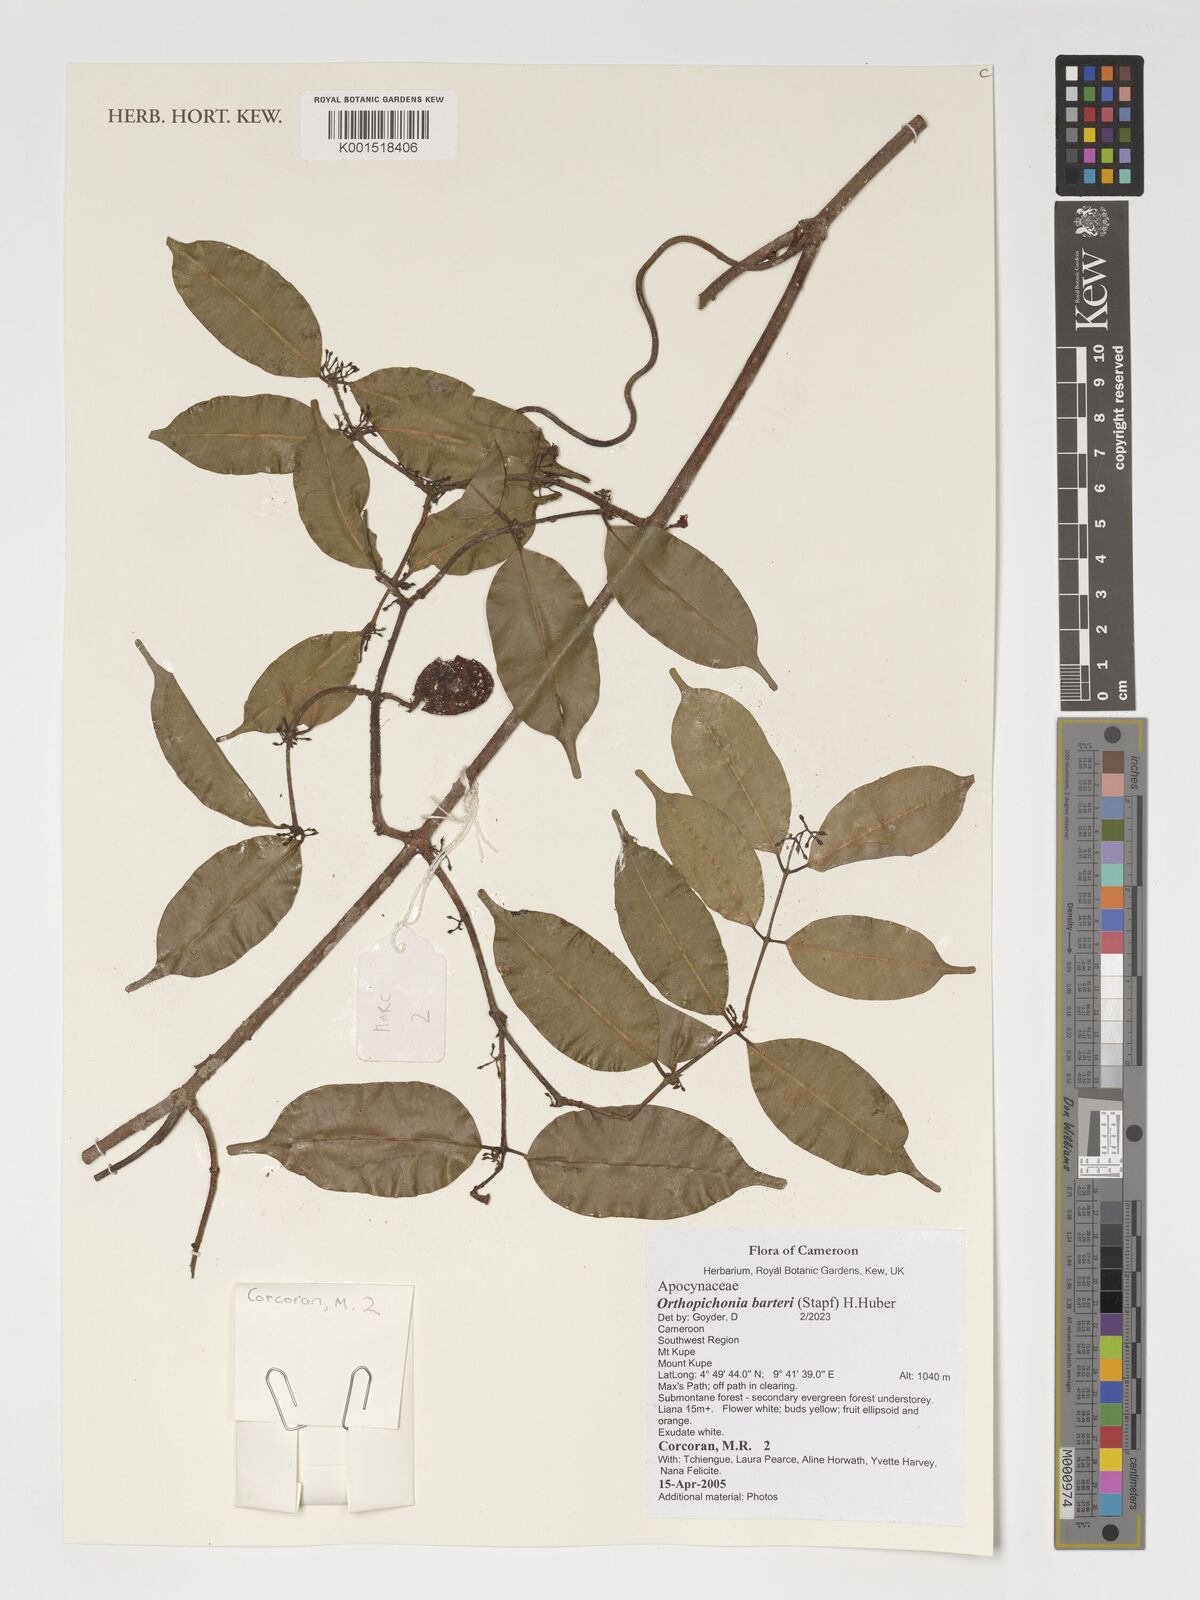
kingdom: Plantae
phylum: Tracheophyta
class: Magnoliopsida
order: Gentianales
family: Apocynaceae
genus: Orthopichonia
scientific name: Orthopichonia barteri
